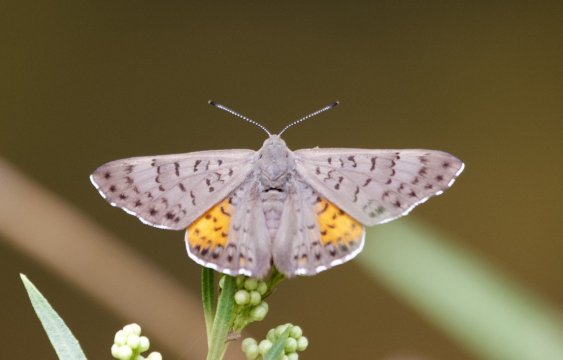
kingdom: Animalia
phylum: Arthropoda
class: Insecta
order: Lepidoptera
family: Sesiidae
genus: Sesia
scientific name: Sesia Emesis ares
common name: Ares Metalmark
